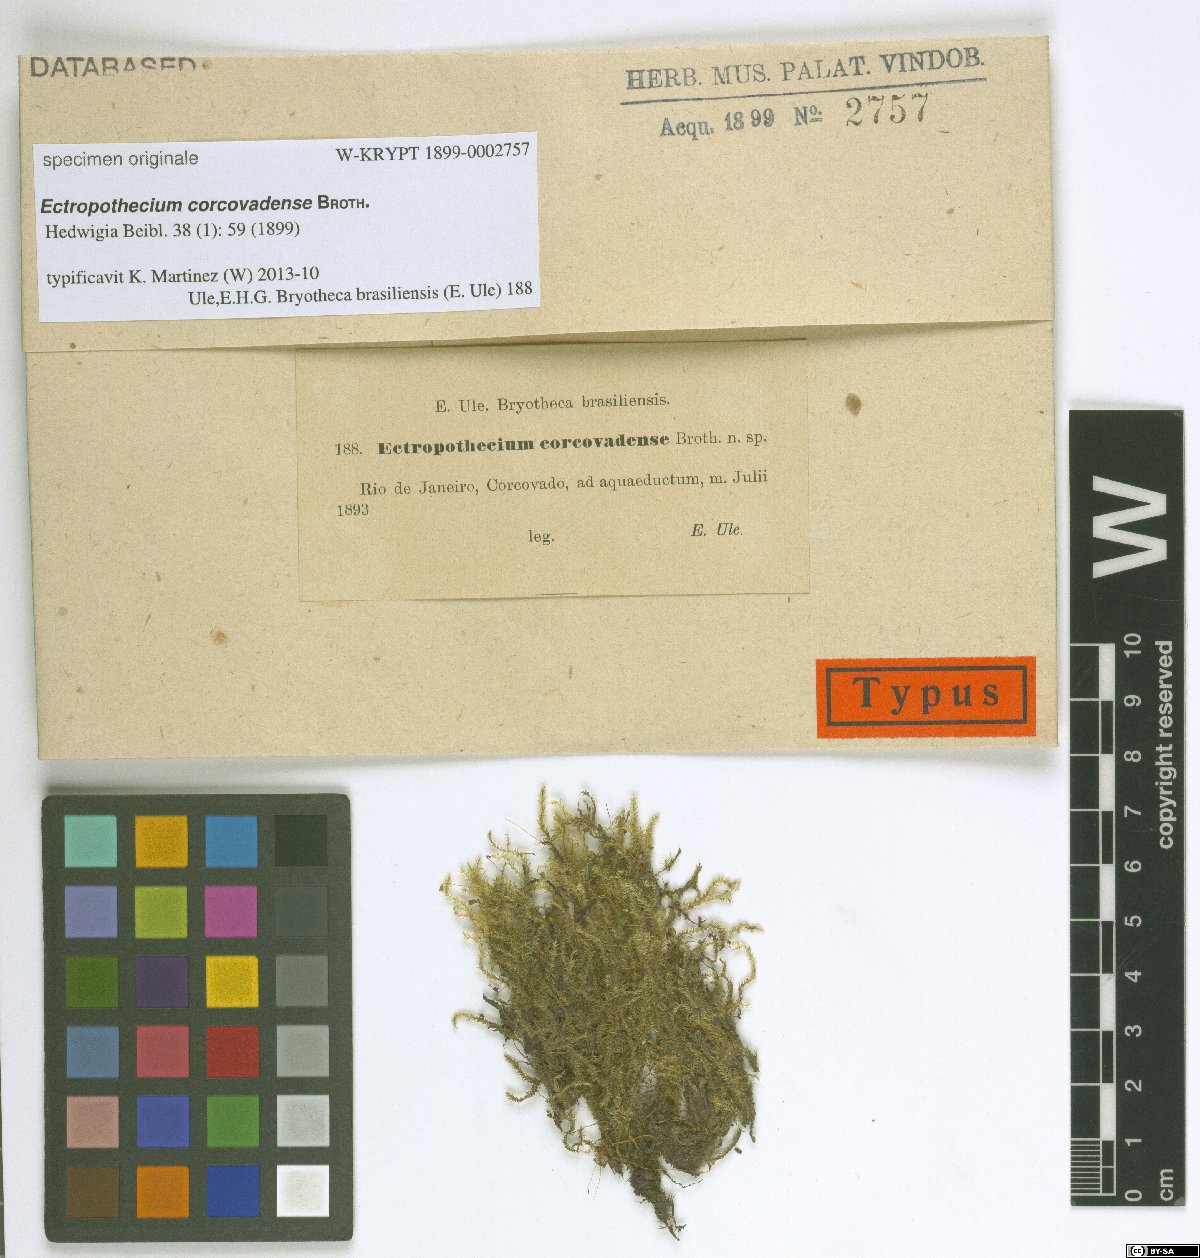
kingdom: Plantae
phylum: Bryophyta
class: Bryopsida
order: Hypnales
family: Hypnaceae
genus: Ectropothecium
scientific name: Ectropothecium
